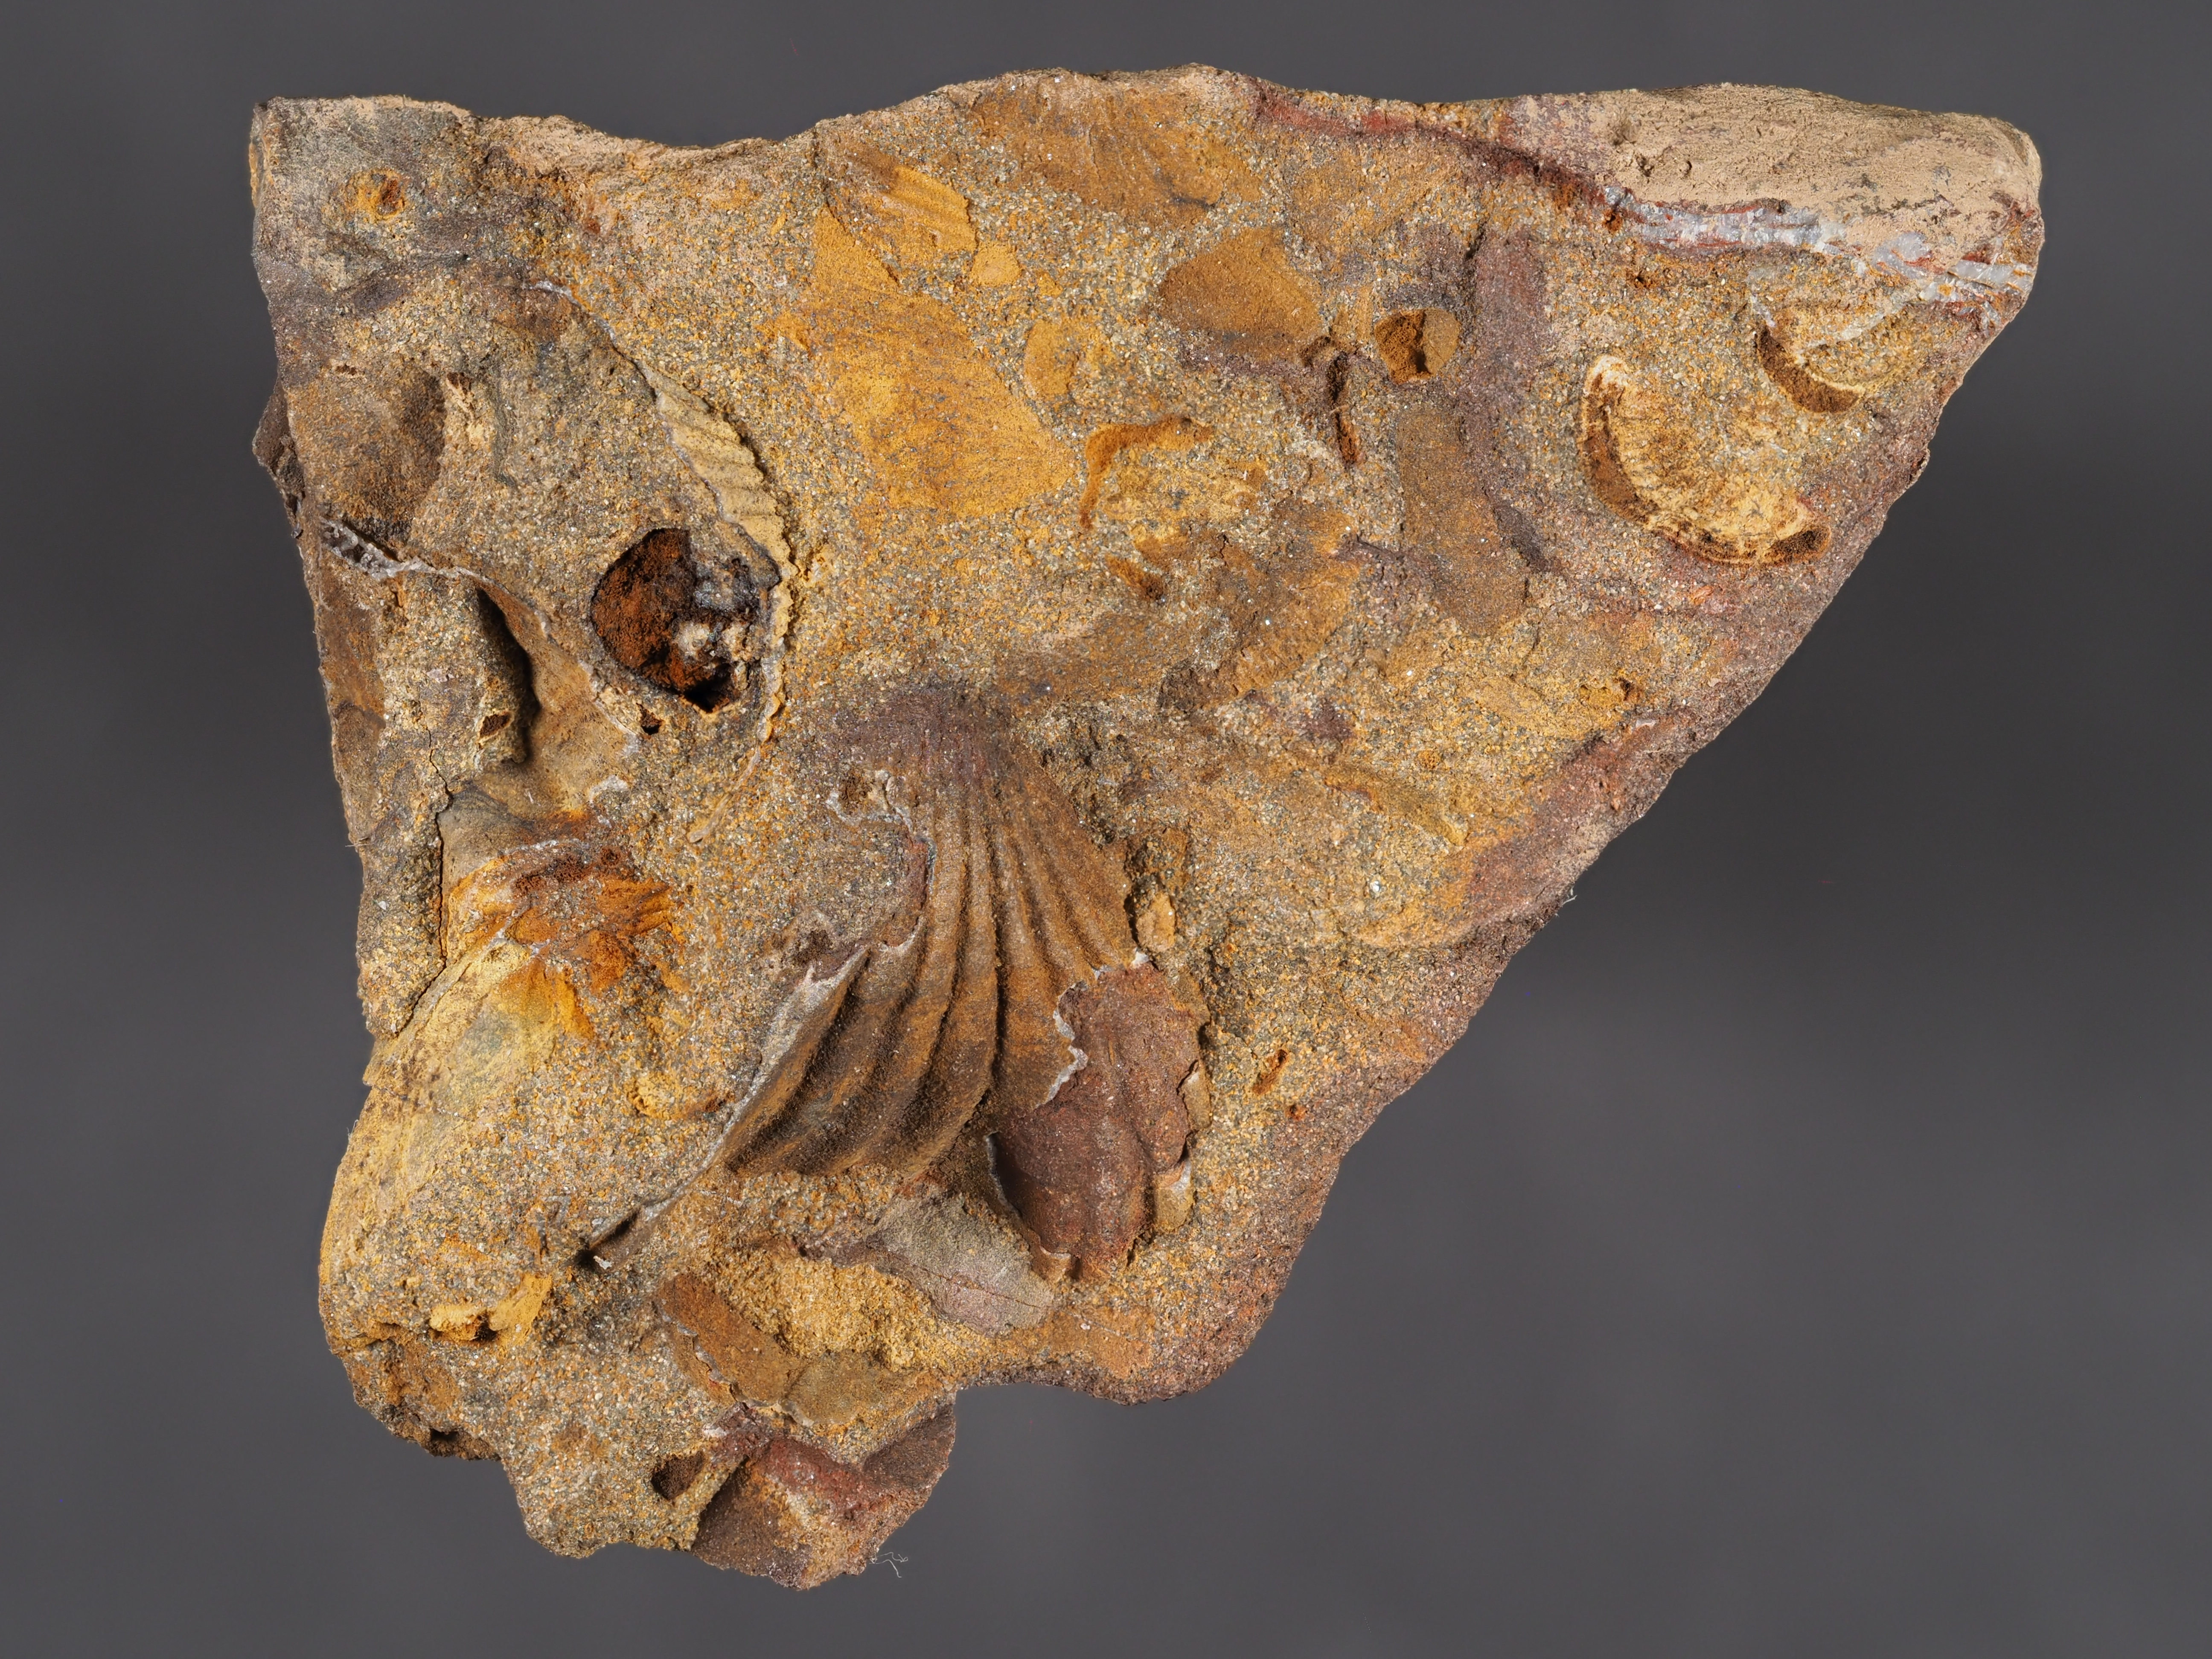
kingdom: Animalia
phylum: Mollusca
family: Bucanellidae
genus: Bucanella
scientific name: Bucanella
